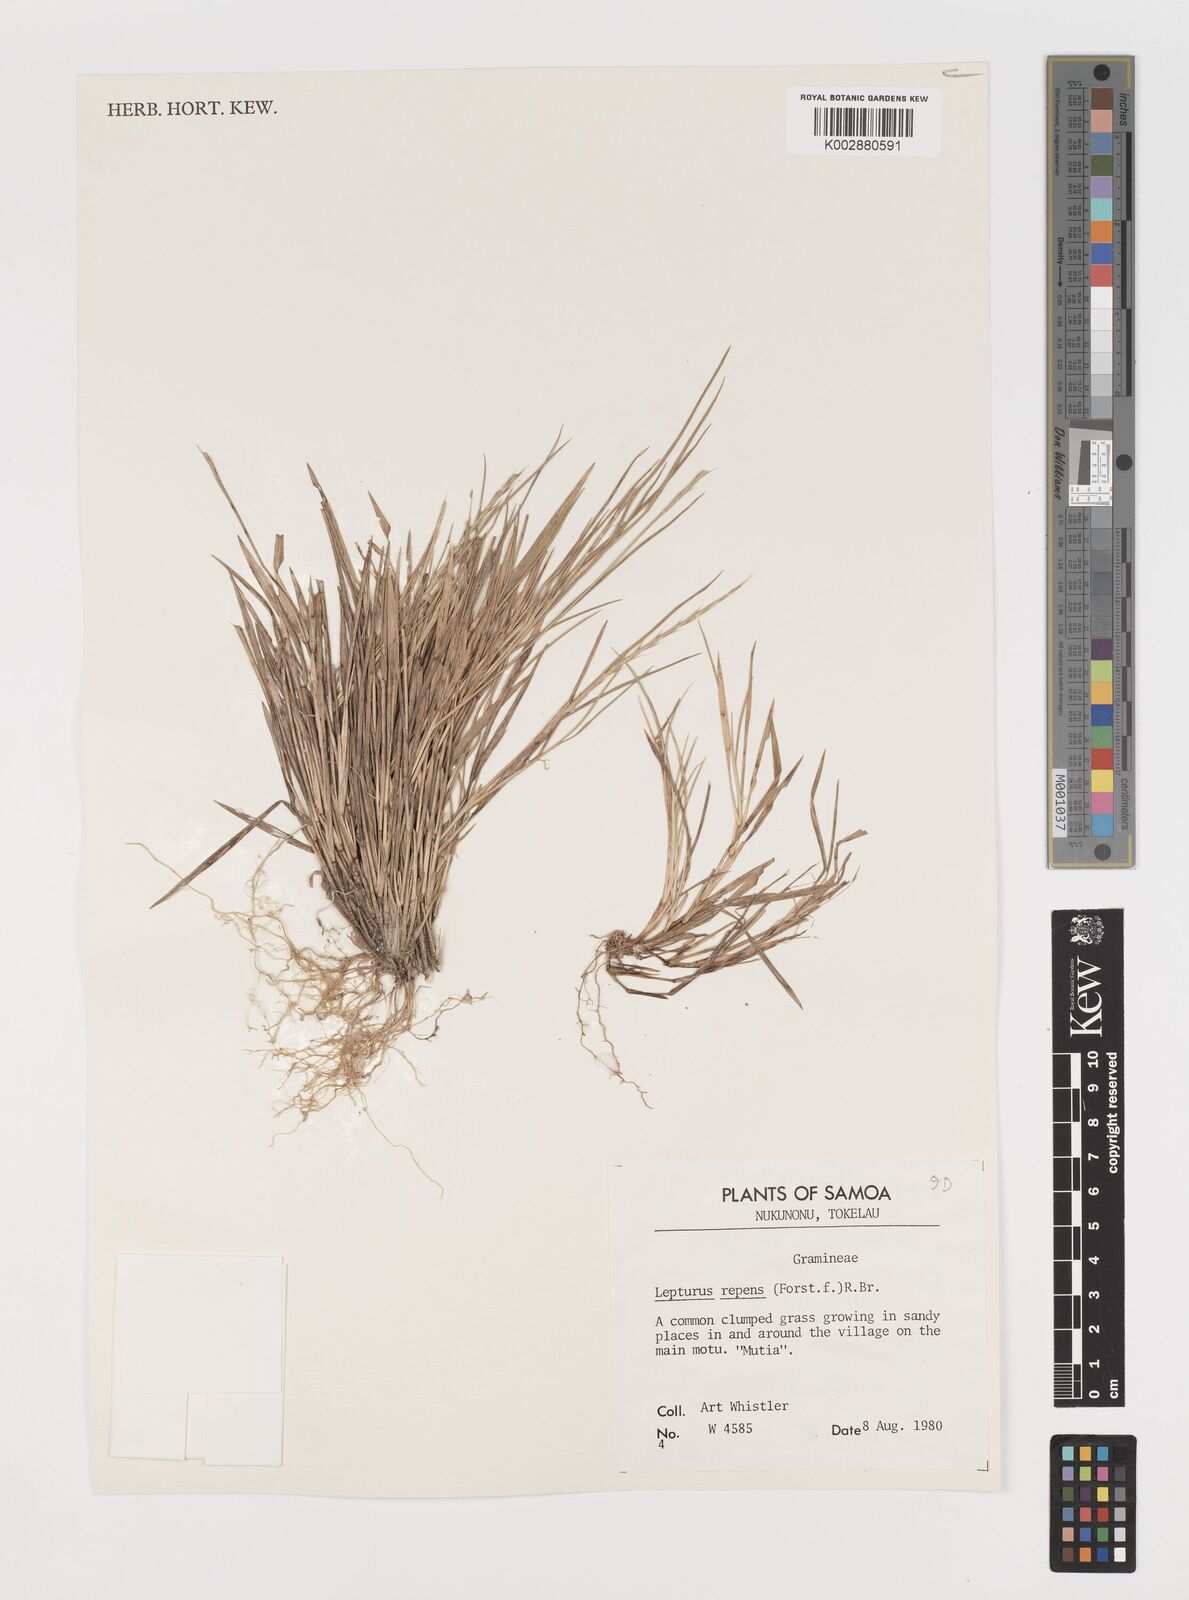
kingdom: Plantae
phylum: Tracheophyta
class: Liliopsida
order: Poales
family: Poaceae
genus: Lepturus
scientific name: Lepturus repens
